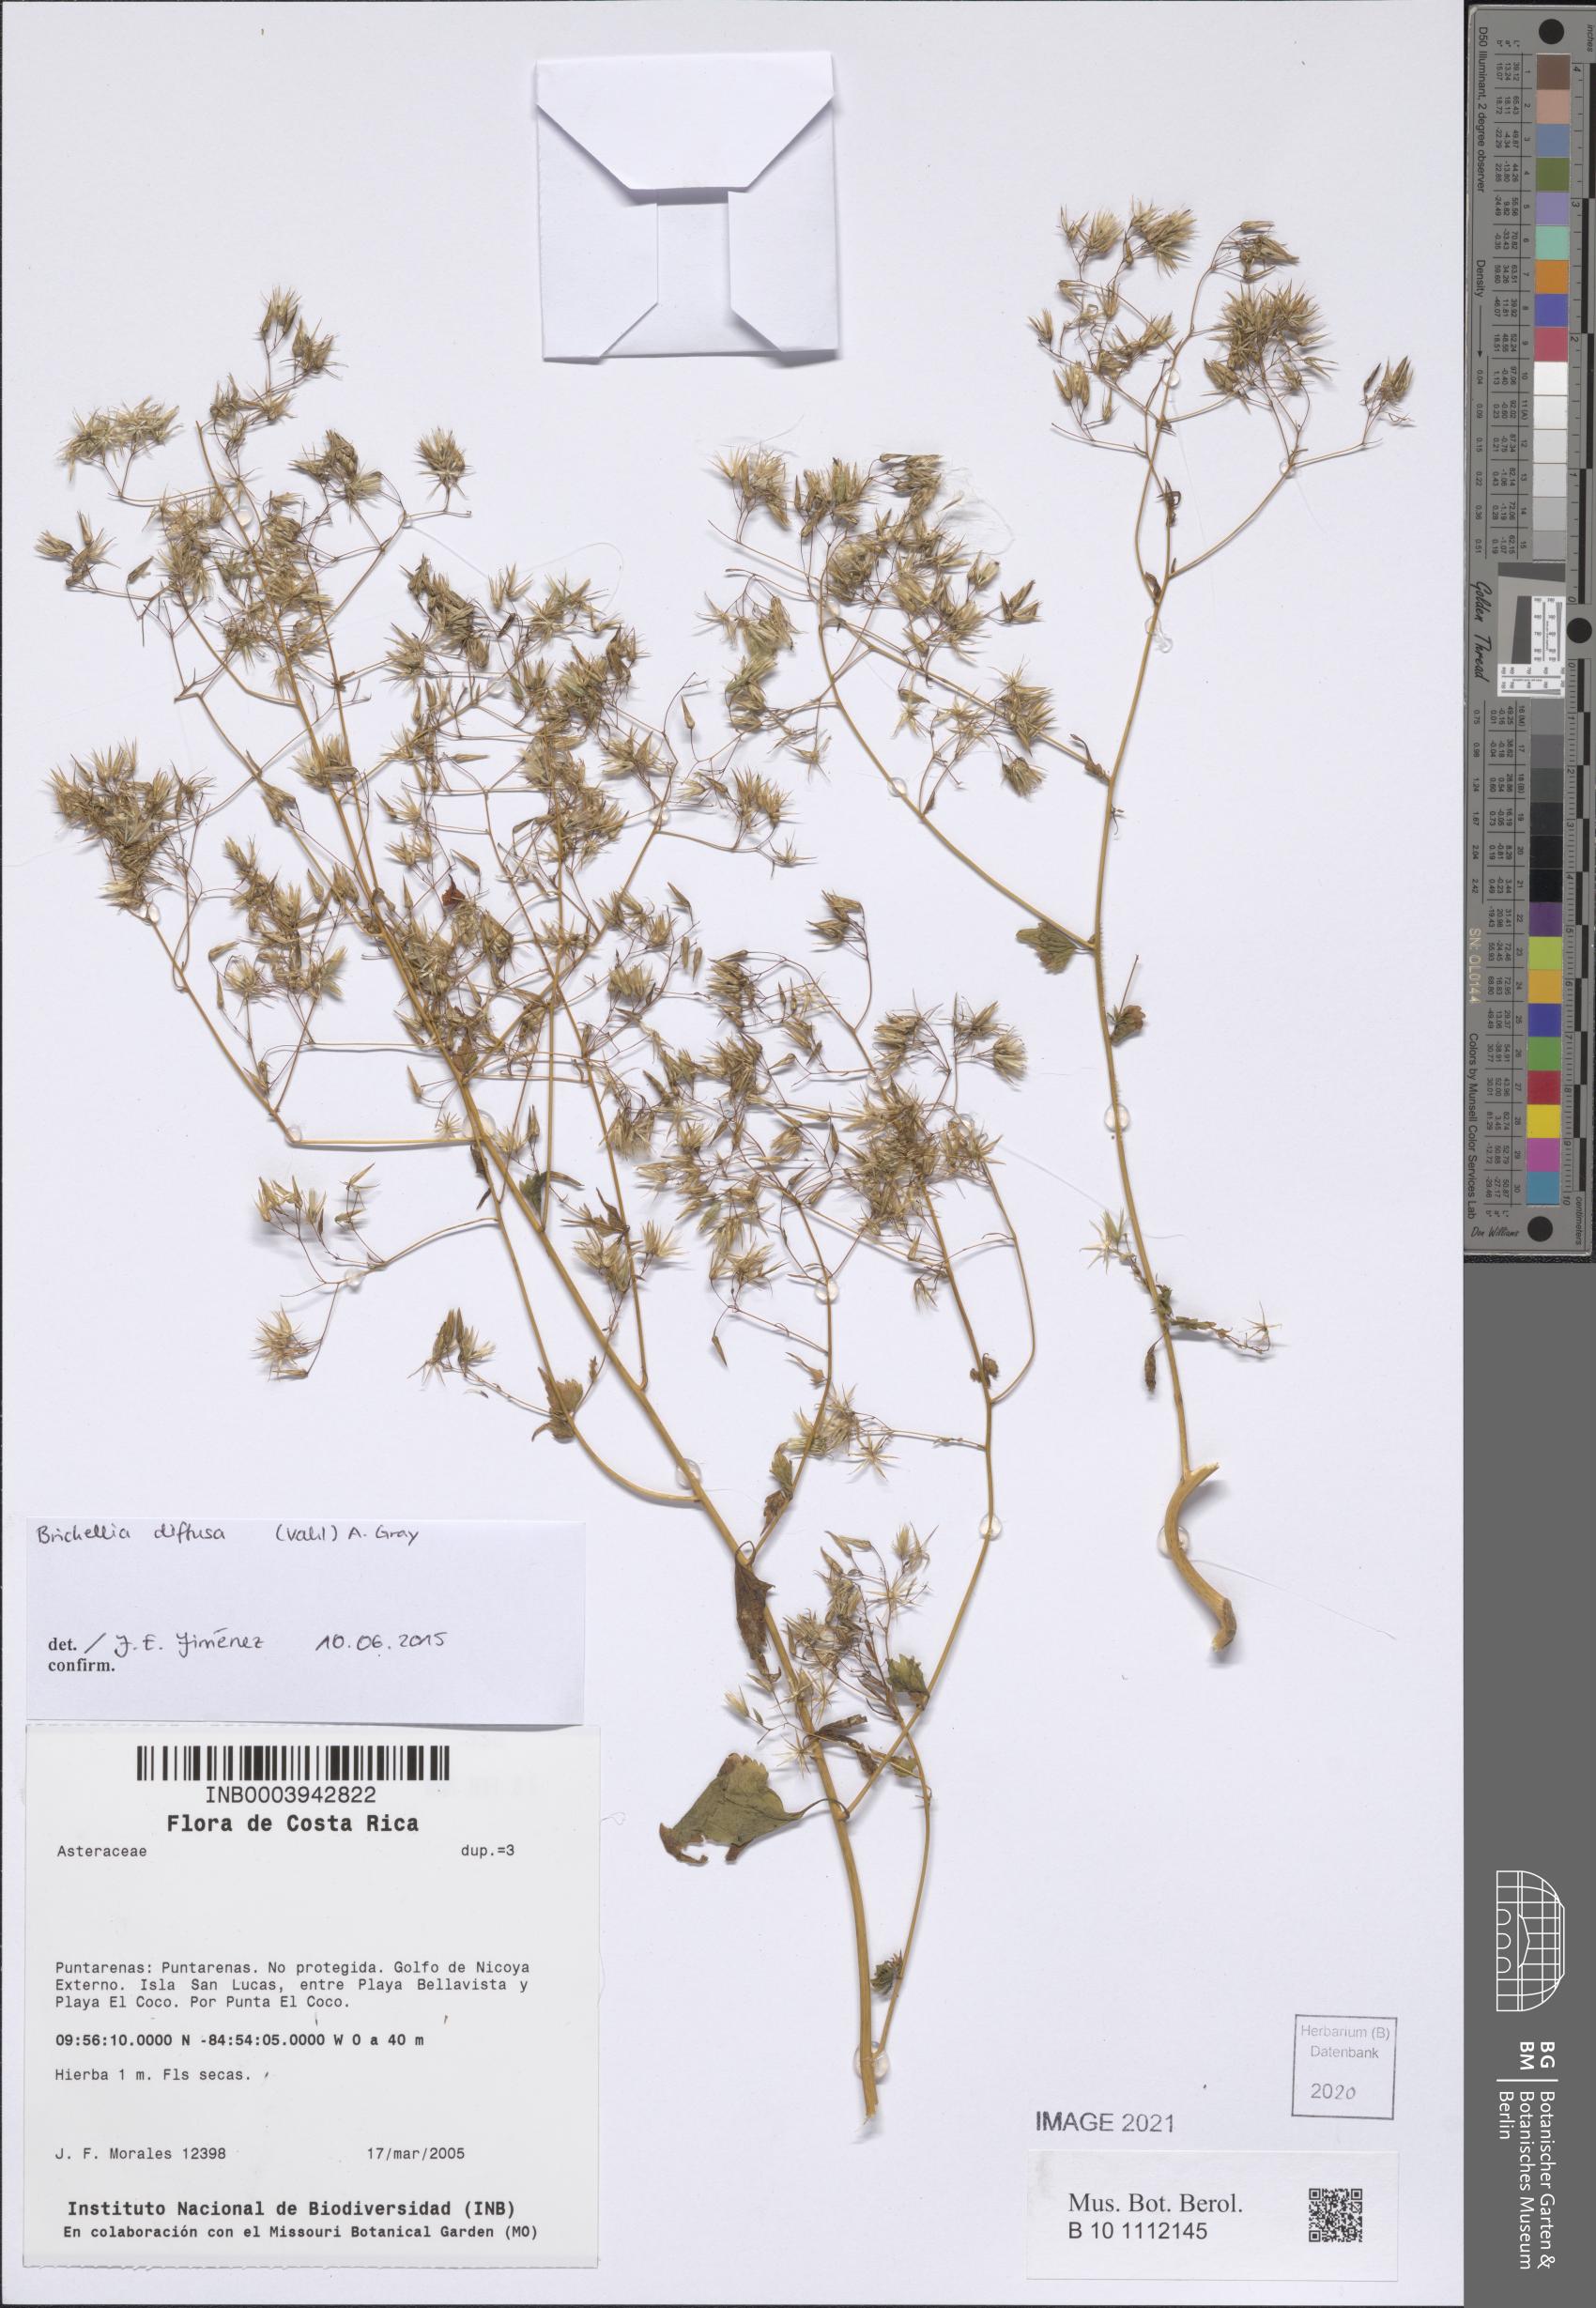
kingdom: Plantae
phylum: Tracheophyta
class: Magnoliopsida
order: Asterales
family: Asteraceae
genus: Brickellia
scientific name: Brickellia diffusa
